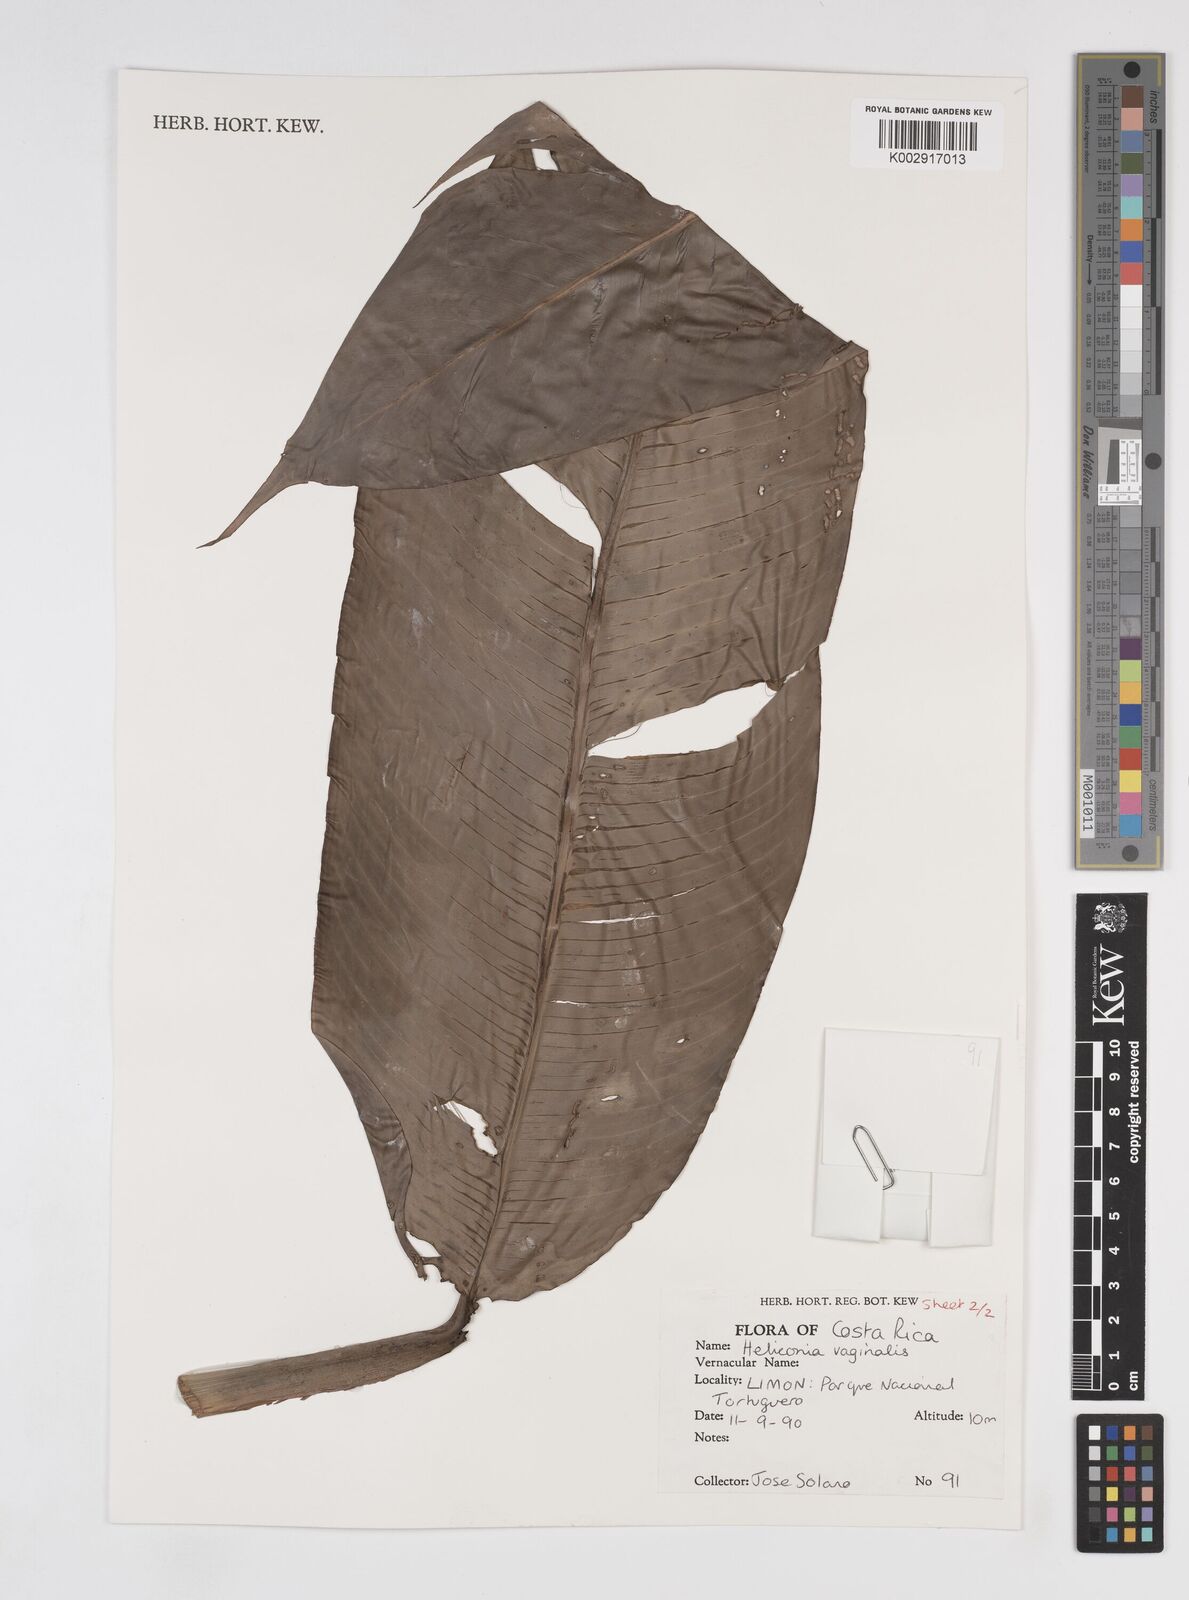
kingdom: Plantae
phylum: Tracheophyta
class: Liliopsida
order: Zingiberales
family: Heliconiaceae
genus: Heliconia
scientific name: Heliconia vaginalis
